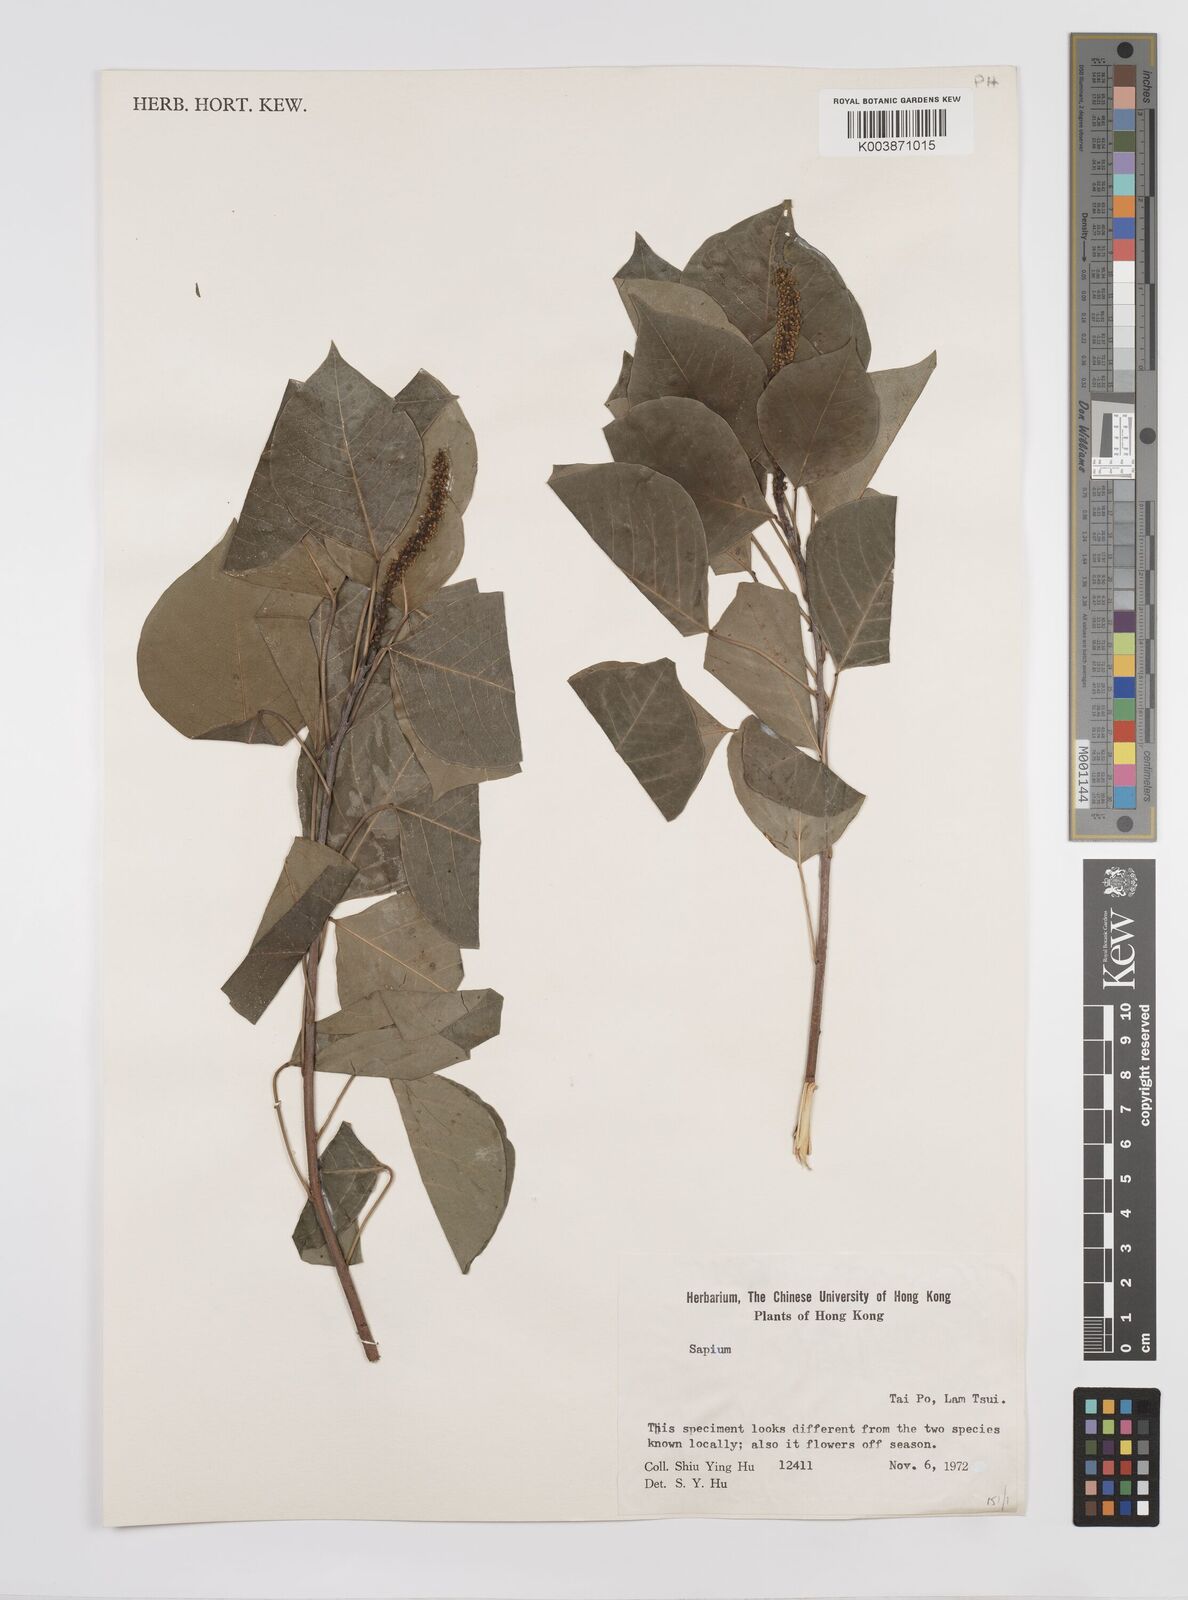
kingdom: Plantae
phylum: Tracheophyta
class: Magnoliopsida
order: Malpighiales
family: Euphorbiaceae
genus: Triadica
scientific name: Triadica sebifera
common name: Chinese tallow
